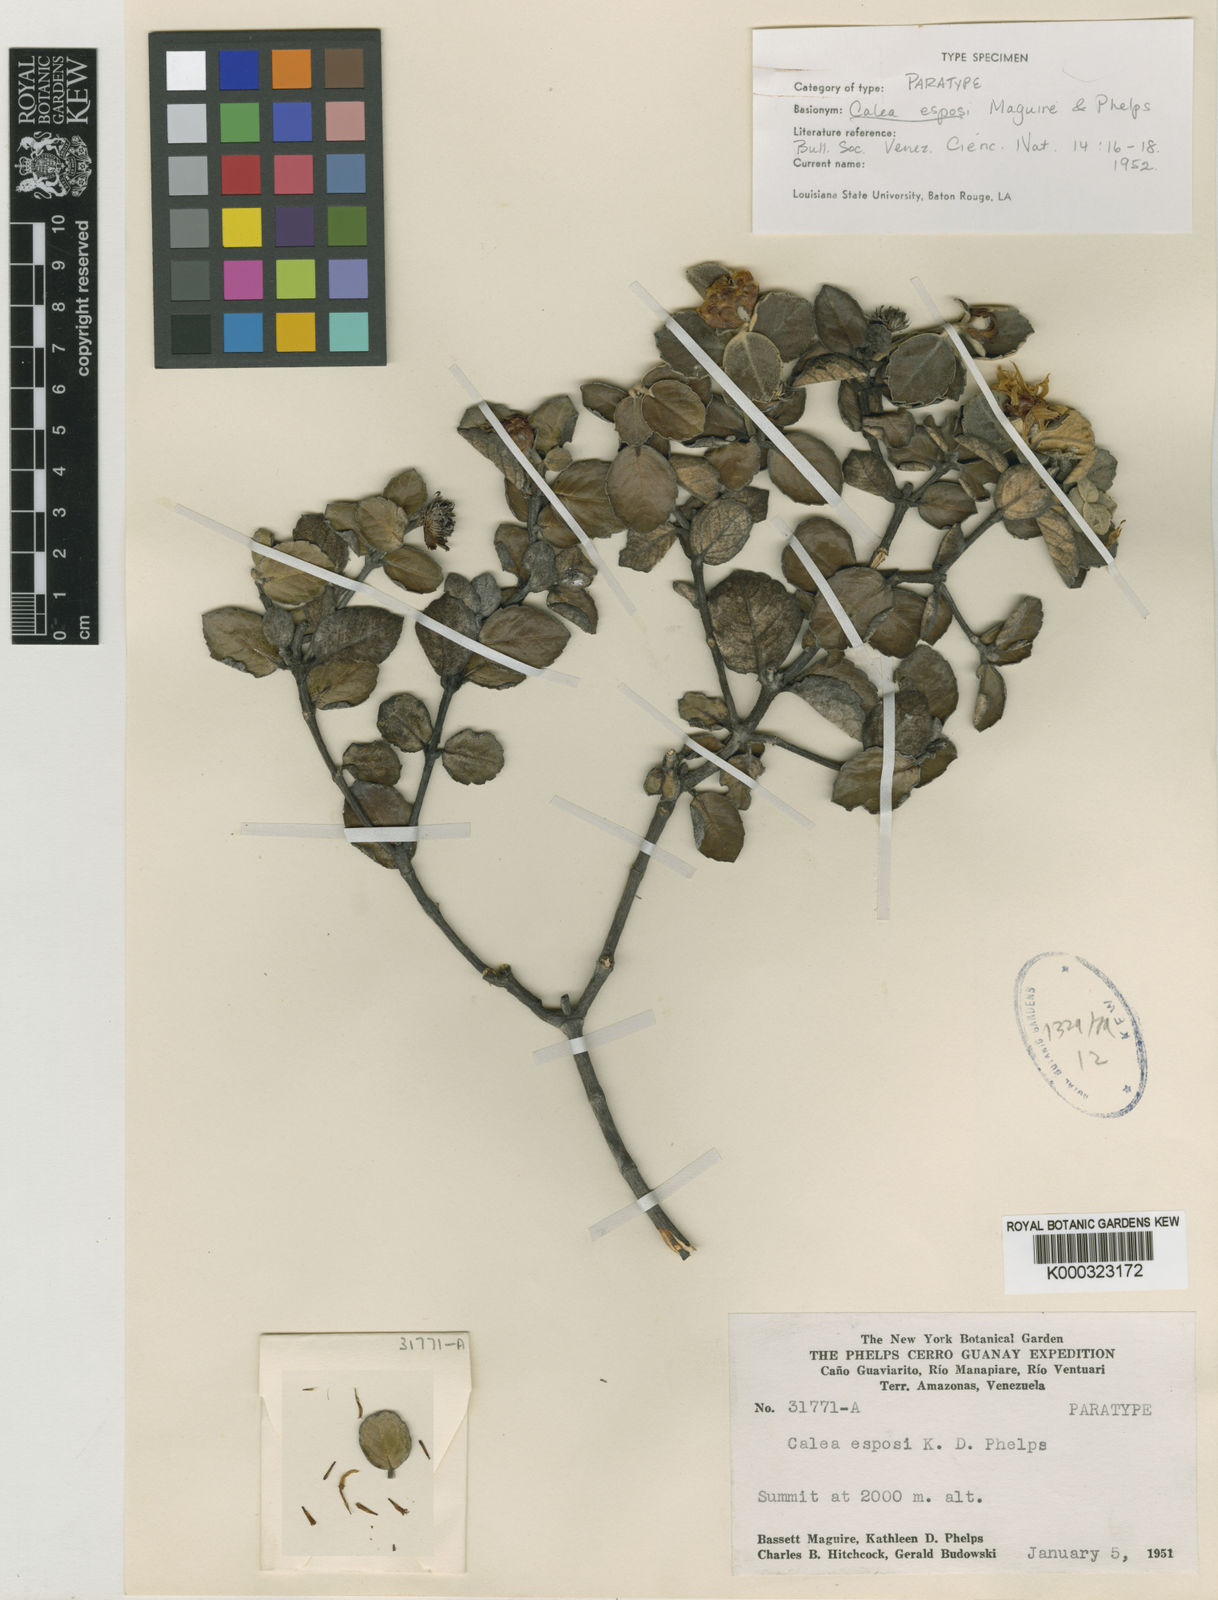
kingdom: Plantae
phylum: Tracheophyta
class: Magnoliopsida
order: Asterales
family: Asteraceae
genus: Calea
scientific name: Calea esposi
